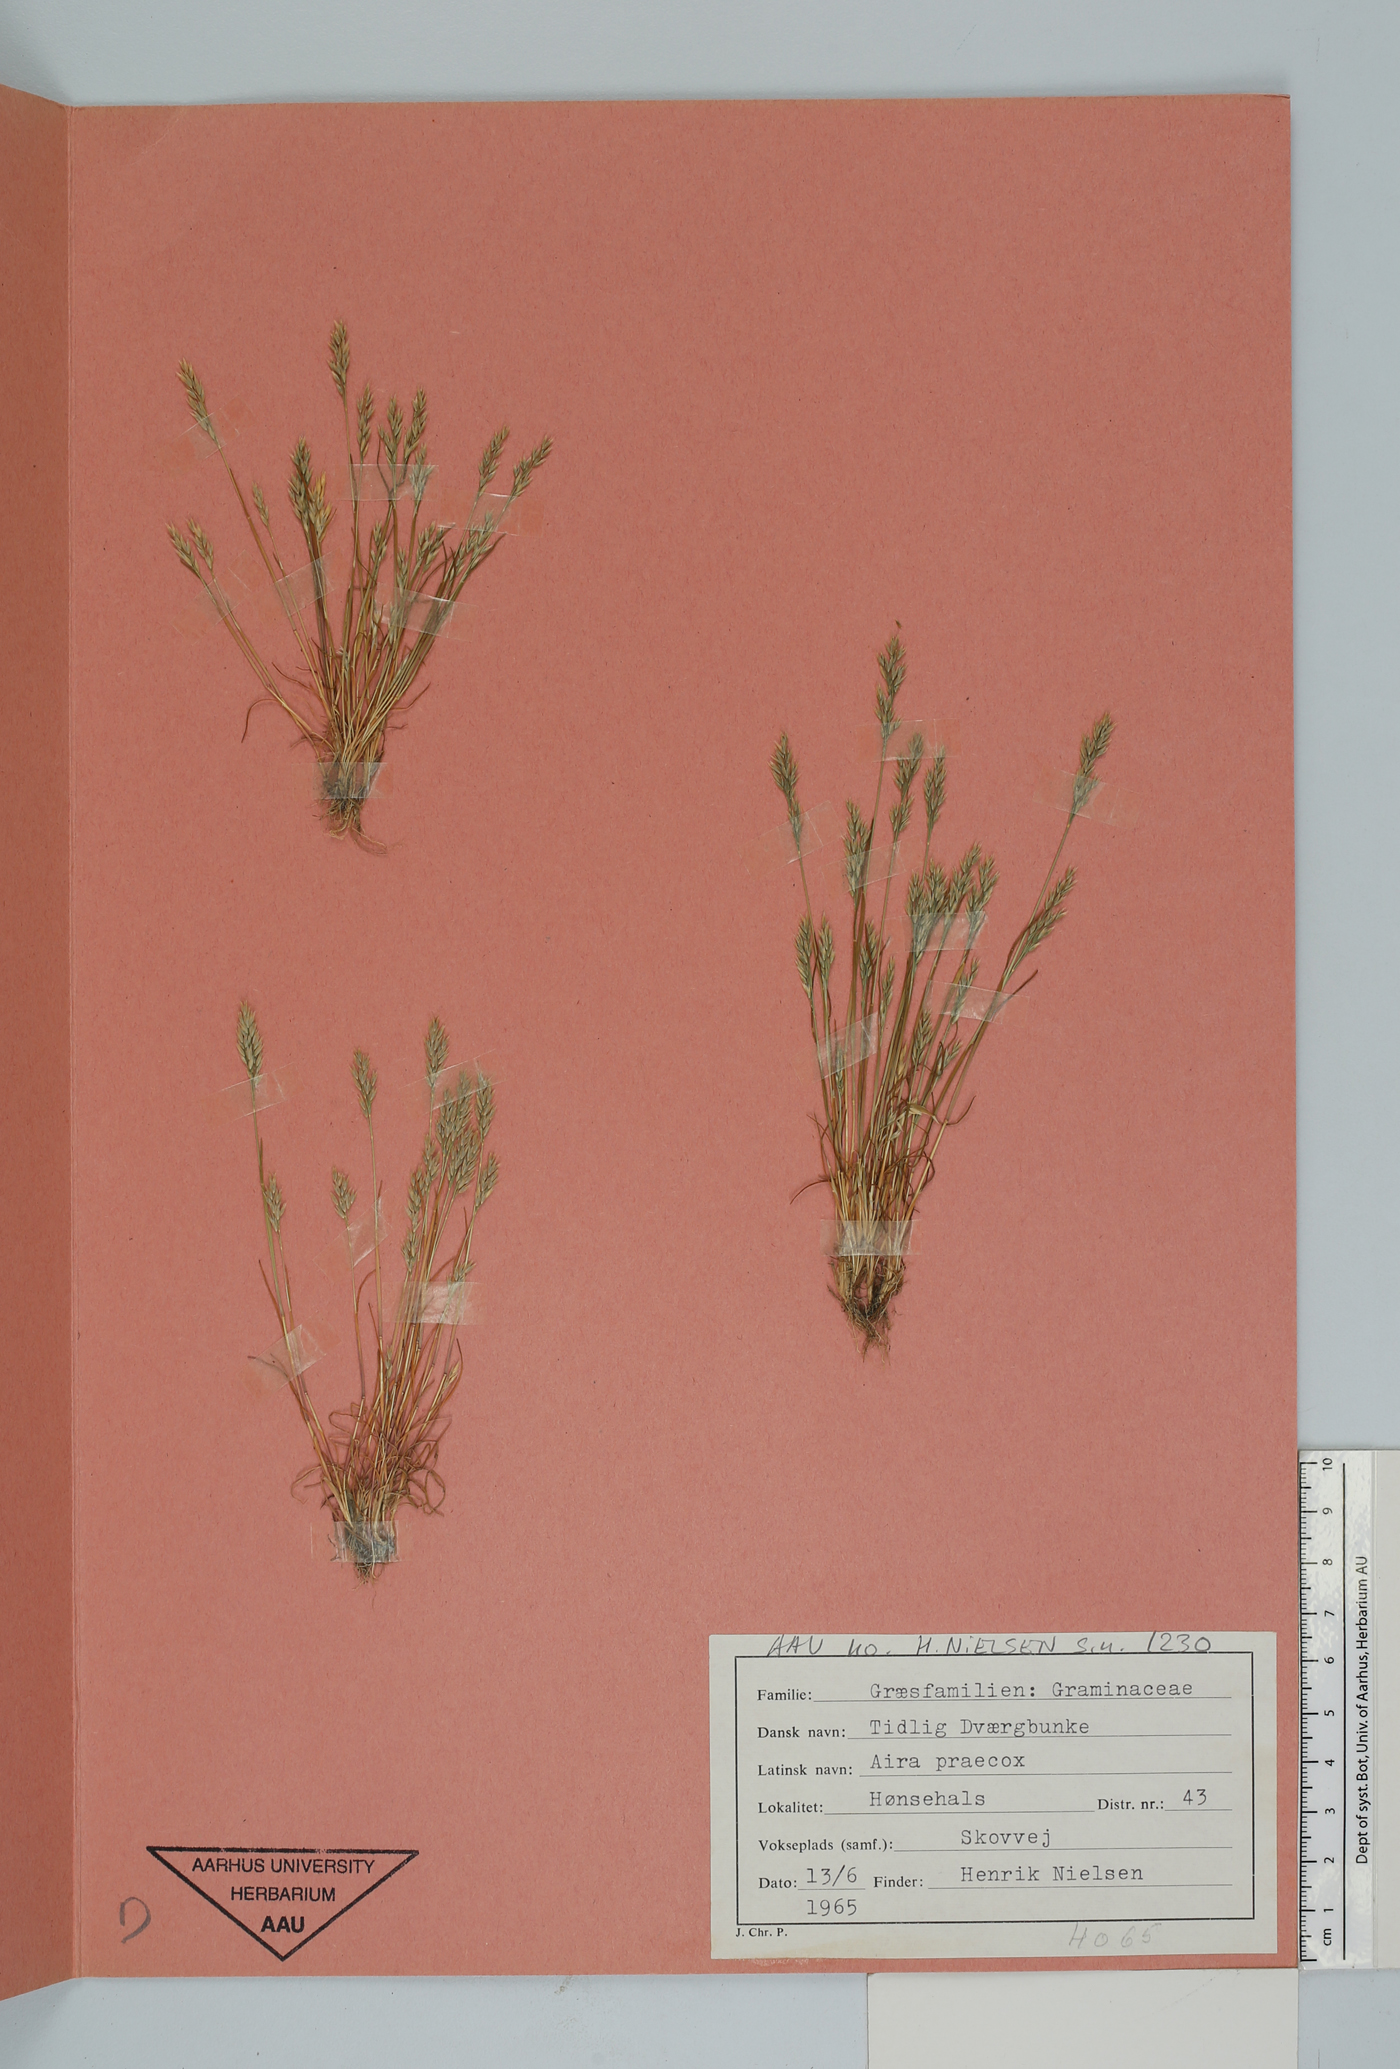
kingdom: Plantae
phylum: Tracheophyta
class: Liliopsida
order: Poales
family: Poaceae
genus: Aira
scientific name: Aira praecox
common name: Early hair-grass
